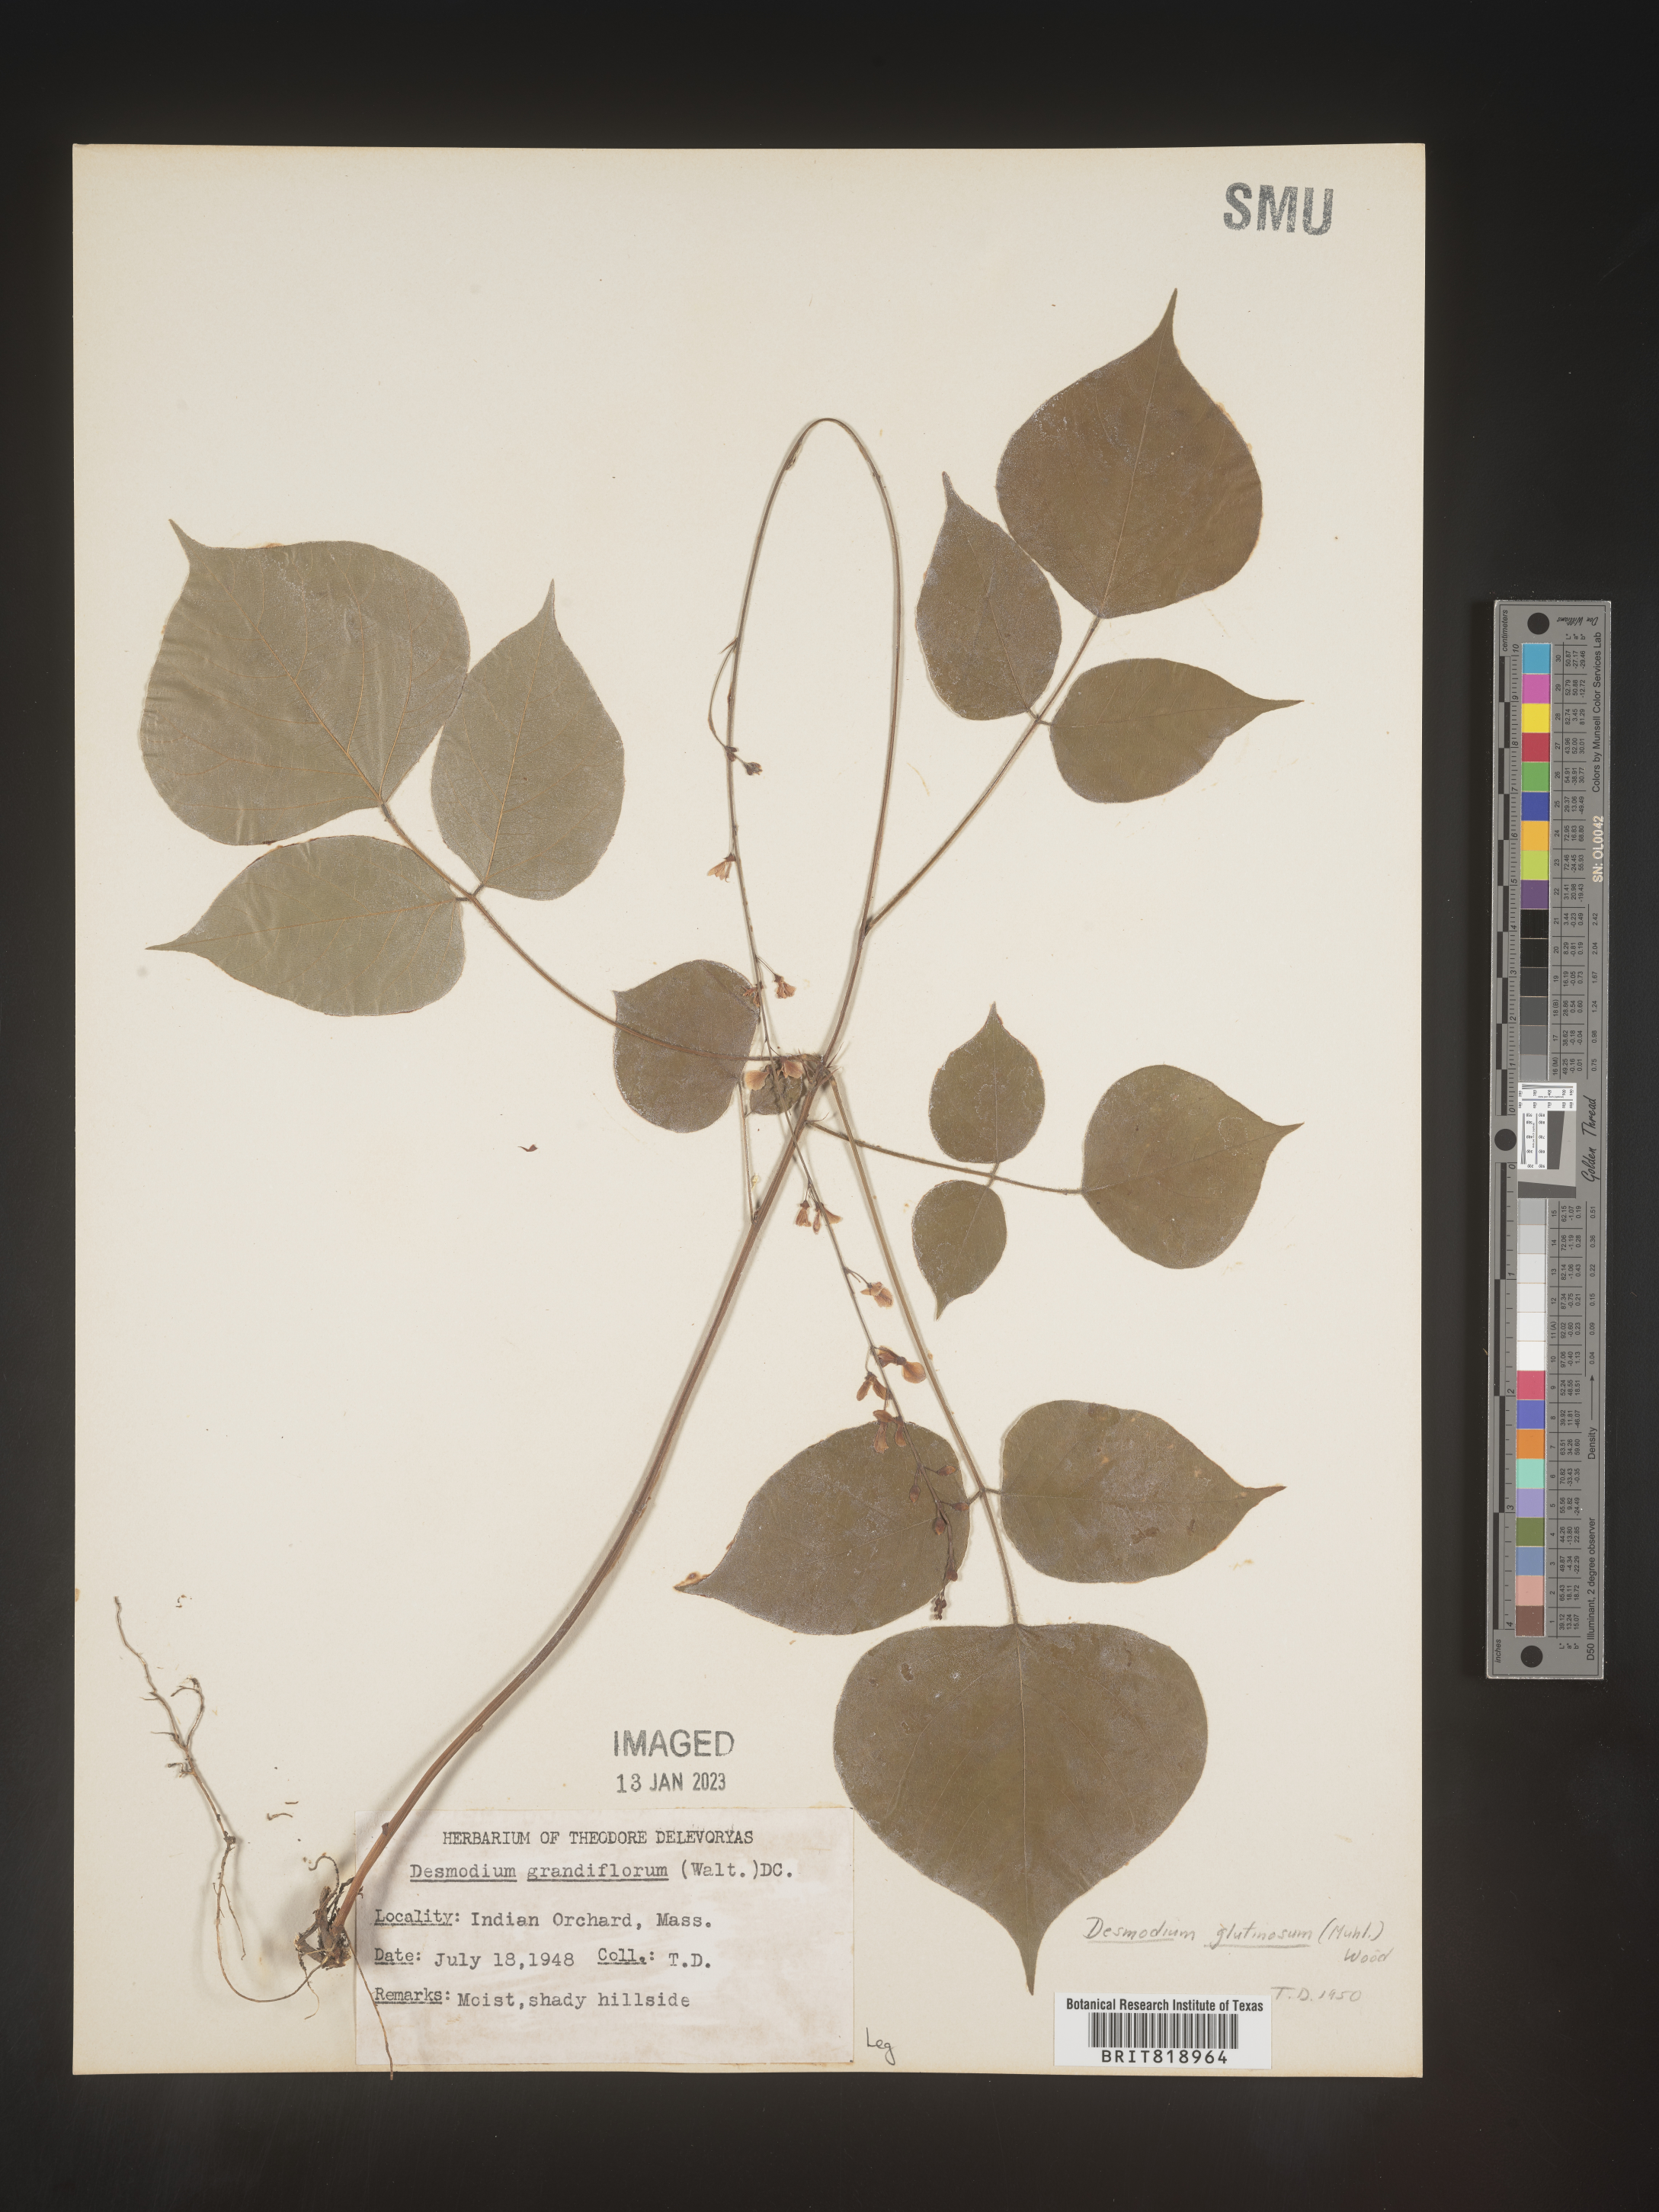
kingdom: Plantae
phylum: Tracheophyta
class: Magnoliopsida
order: Fabales
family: Fabaceae
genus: Desmodium
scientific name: Desmodium
